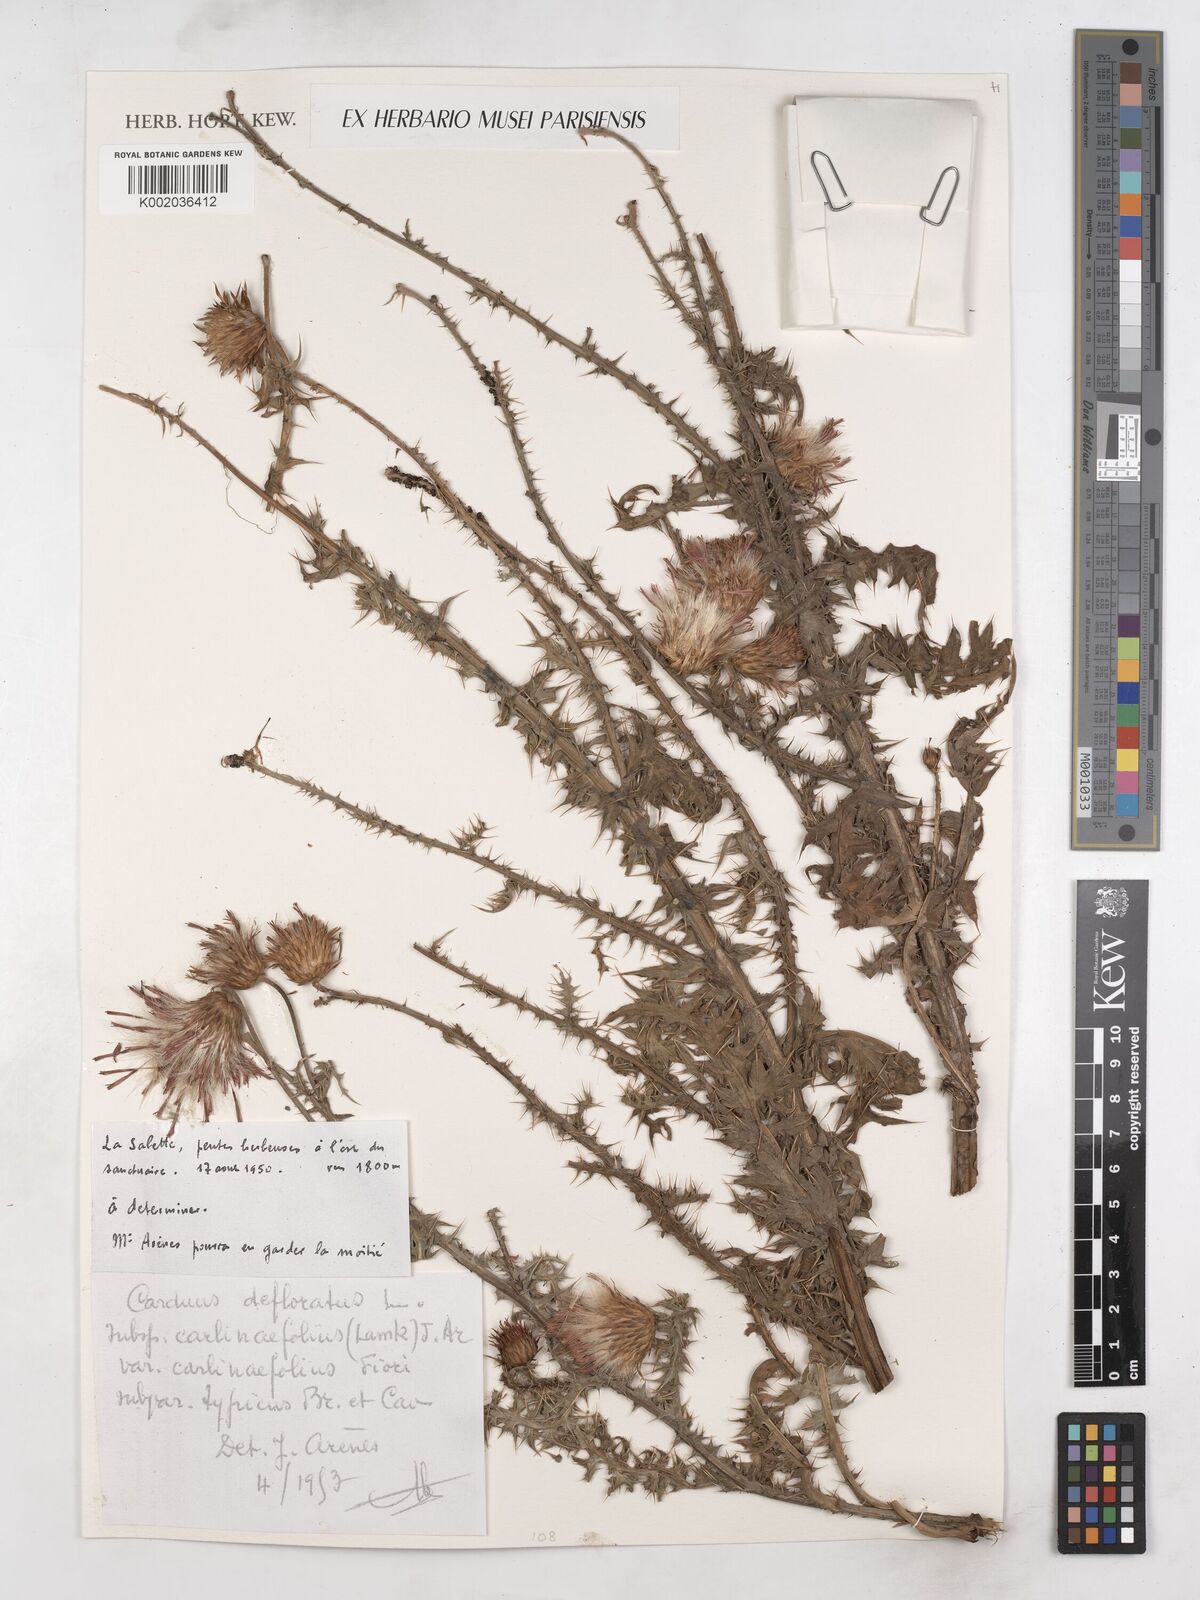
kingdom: Plantae
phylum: Tracheophyta
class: Magnoliopsida
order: Asterales
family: Asteraceae
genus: Carduus
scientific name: Carduus carlinifolius
